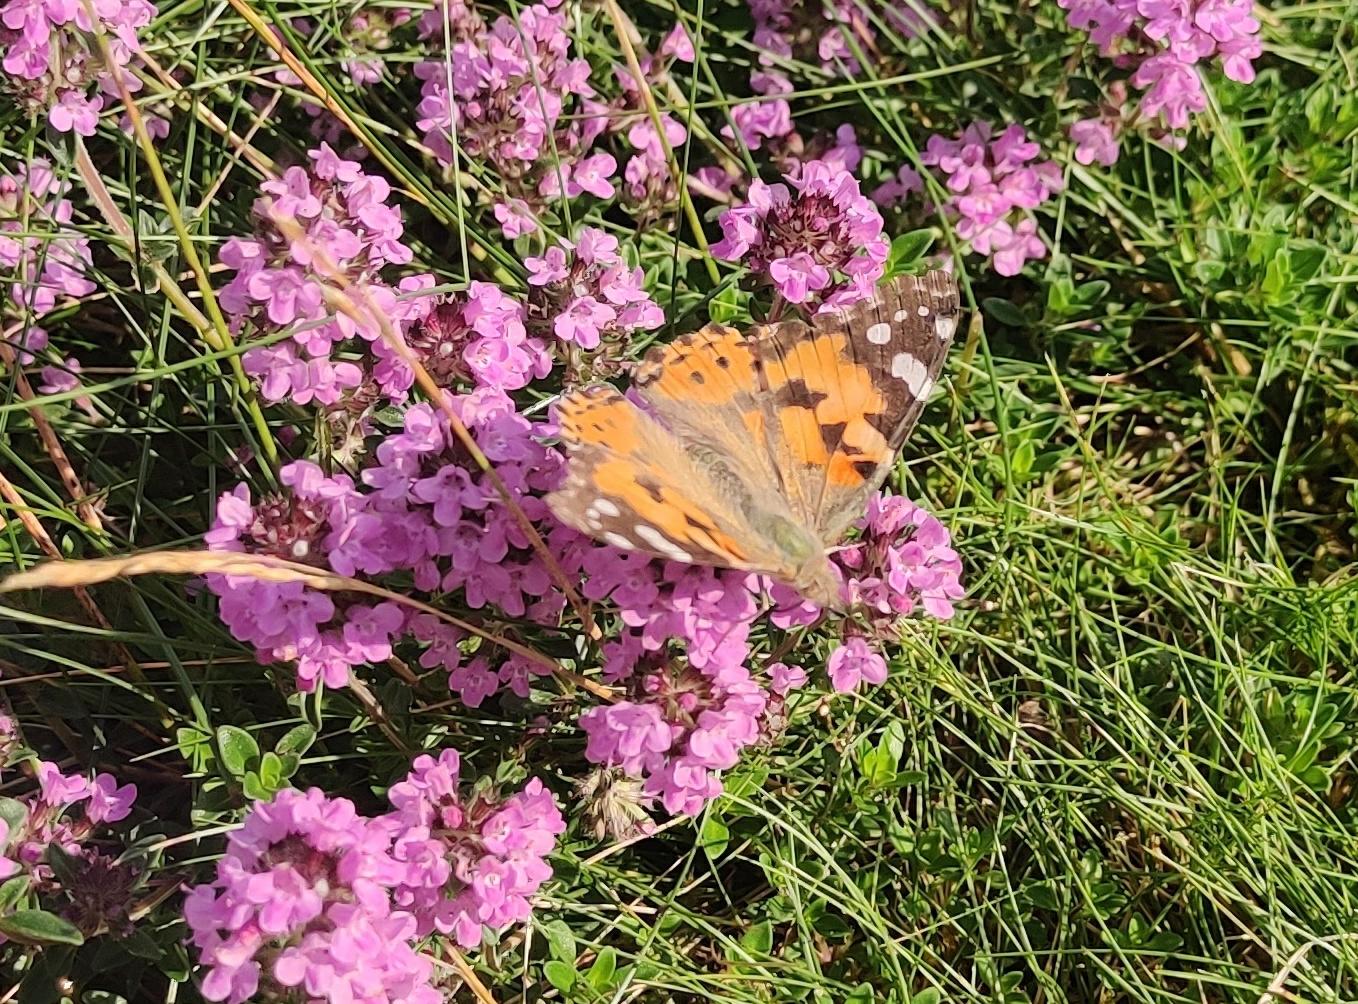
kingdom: Animalia
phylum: Arthropoda
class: Insecta
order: Lepidoptera
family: Nymphalidae
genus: Vanessa
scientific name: Vanessa cardui
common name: Tidselsommerfugl
